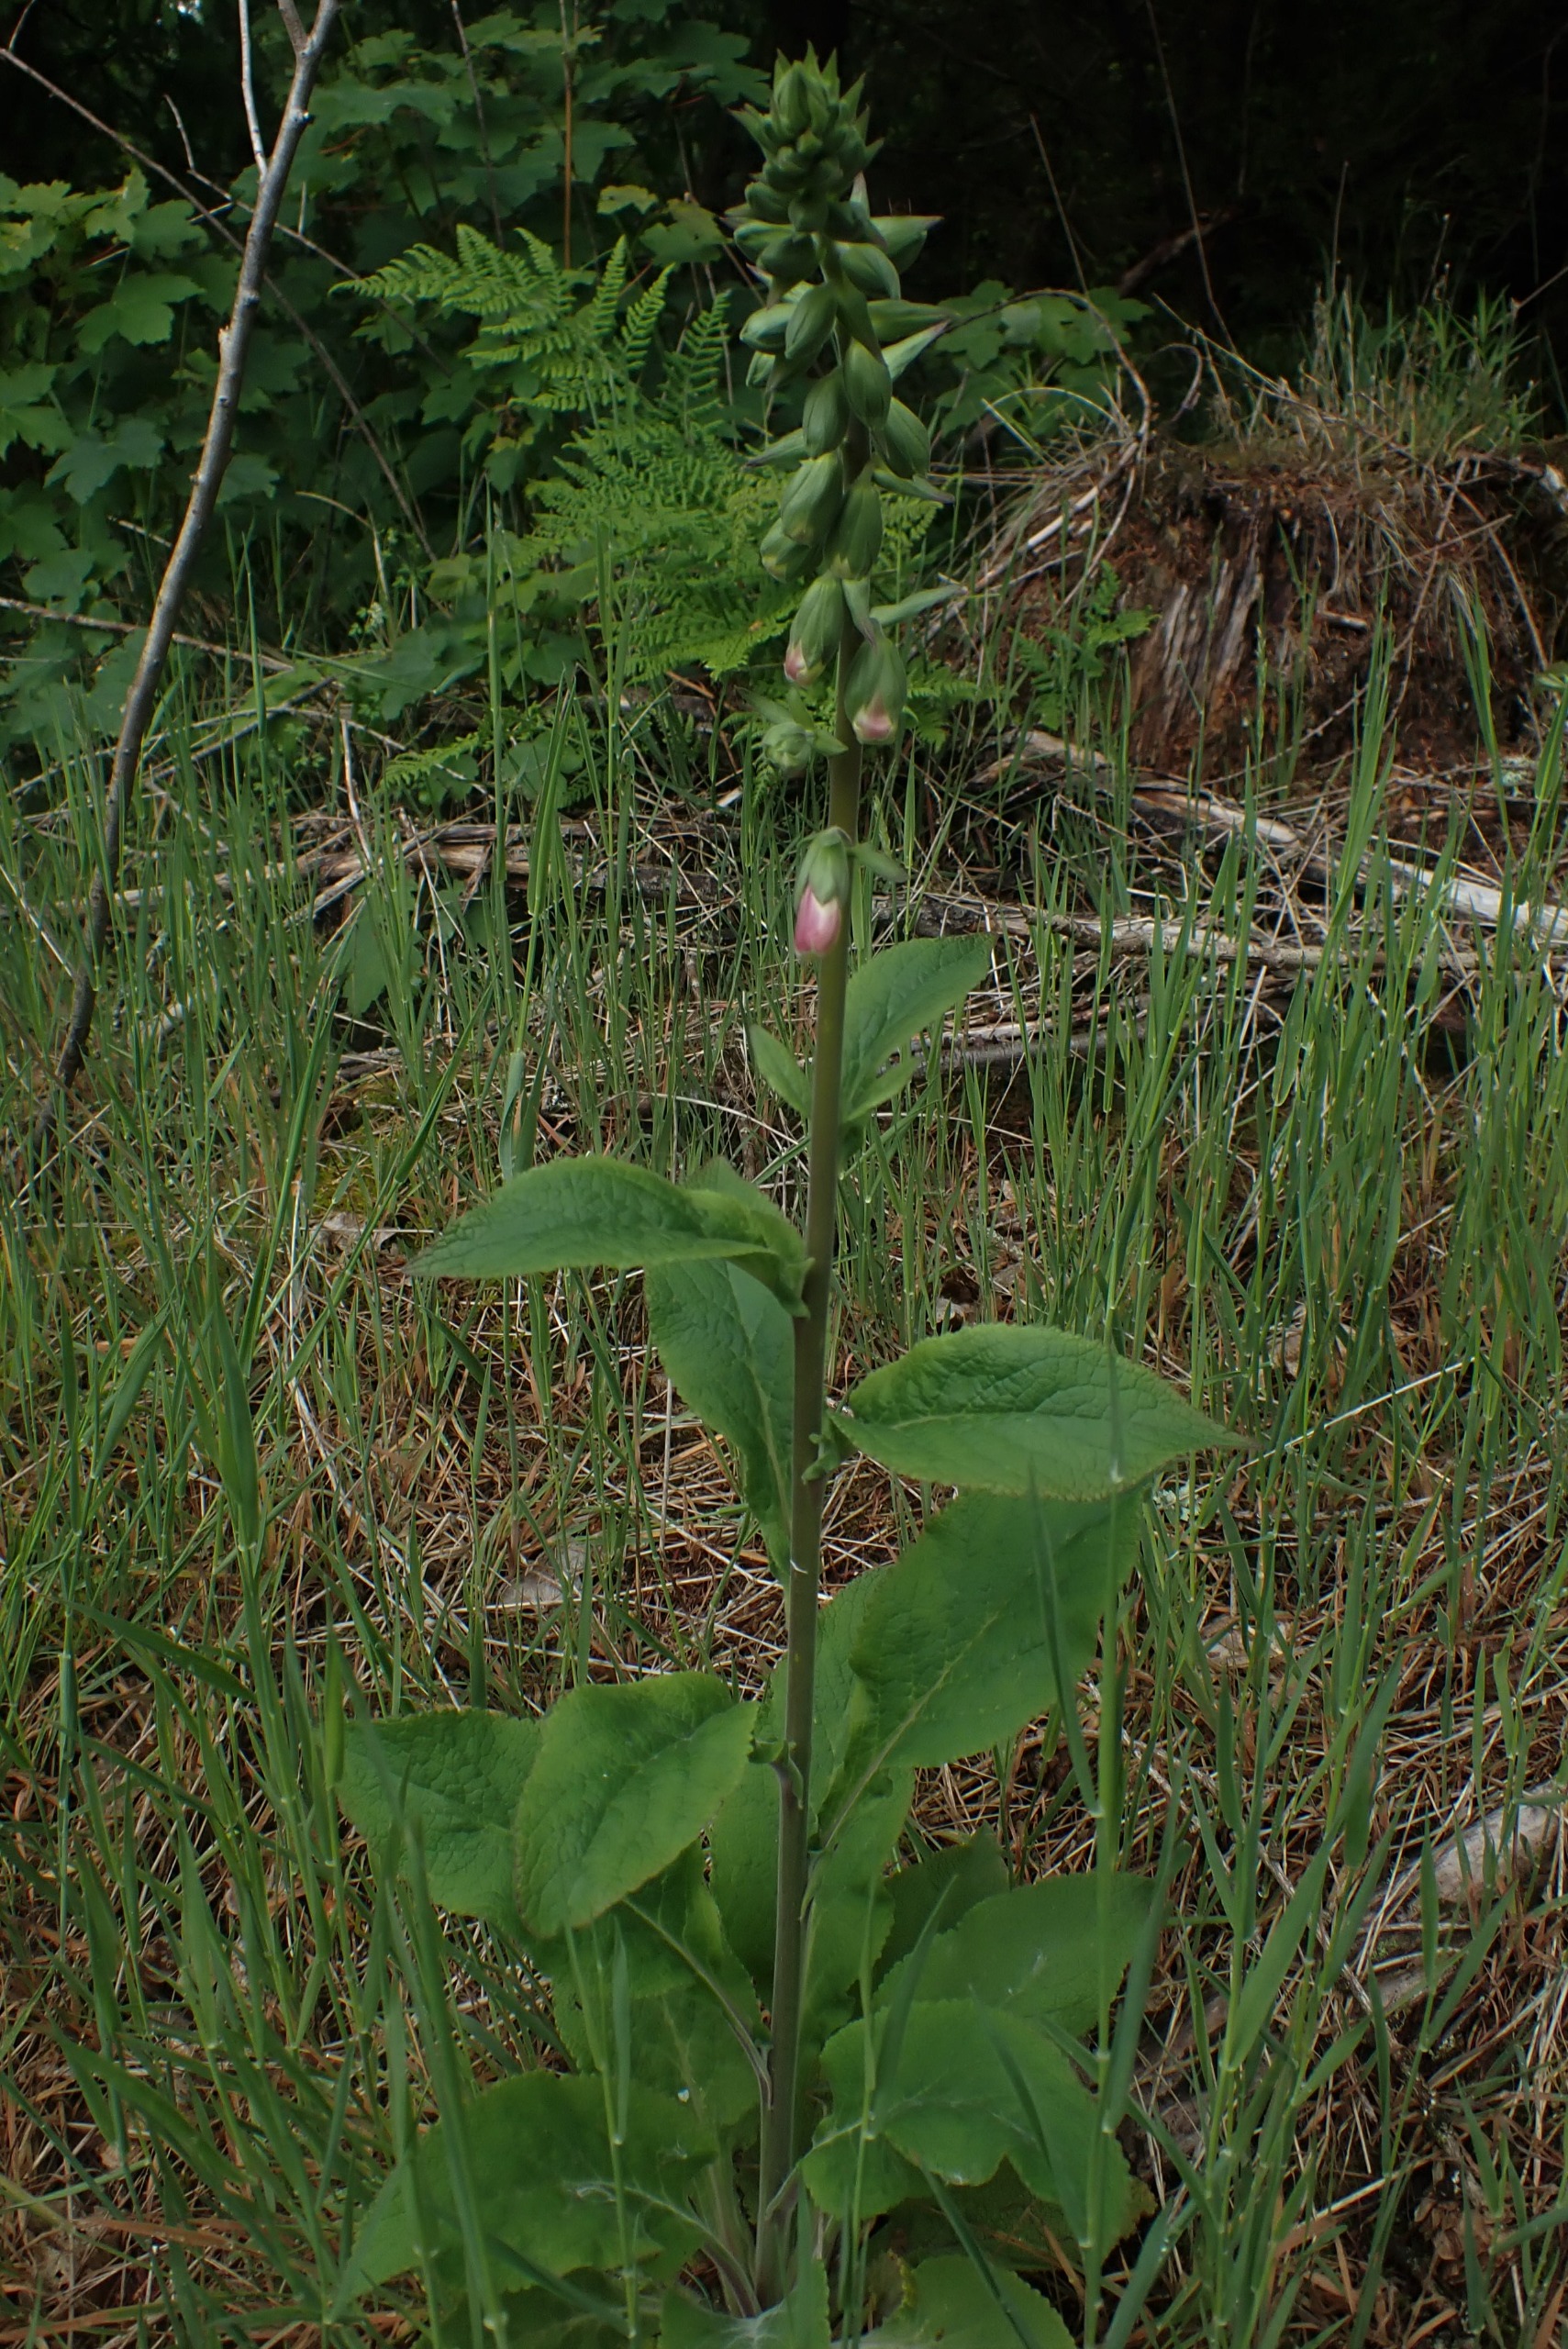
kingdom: Plantae
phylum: Tracheophyta
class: Magnoliopsida
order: Lamiales
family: Plantaginaceae
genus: Digitalis
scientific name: Digitalis purpurea
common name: Almindelig fingerbøl
